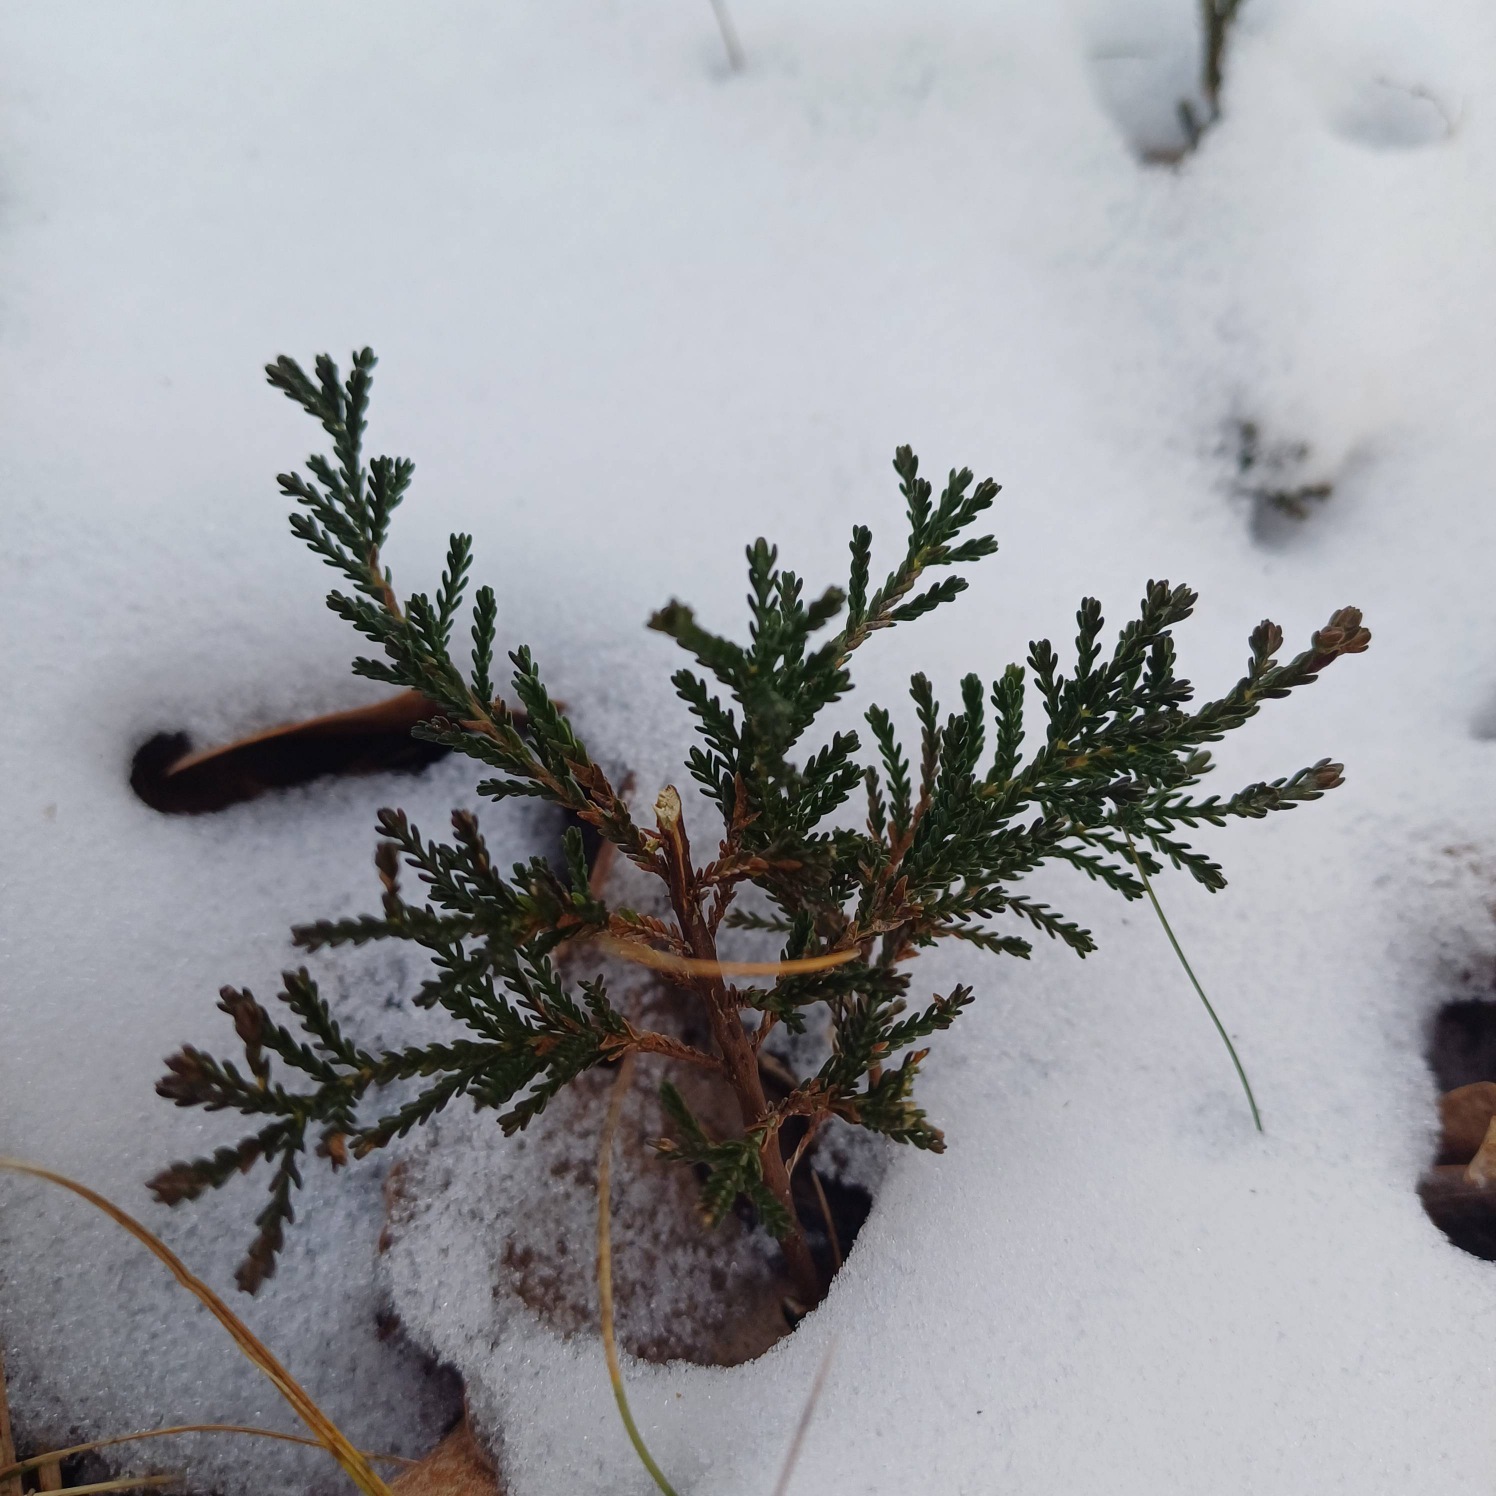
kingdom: Plantae
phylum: Tracheophyta
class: Magnoliopsida
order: Ericales
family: Ericaceae
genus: Calluna
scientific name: Calluna vulgaris
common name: Hedelyng
